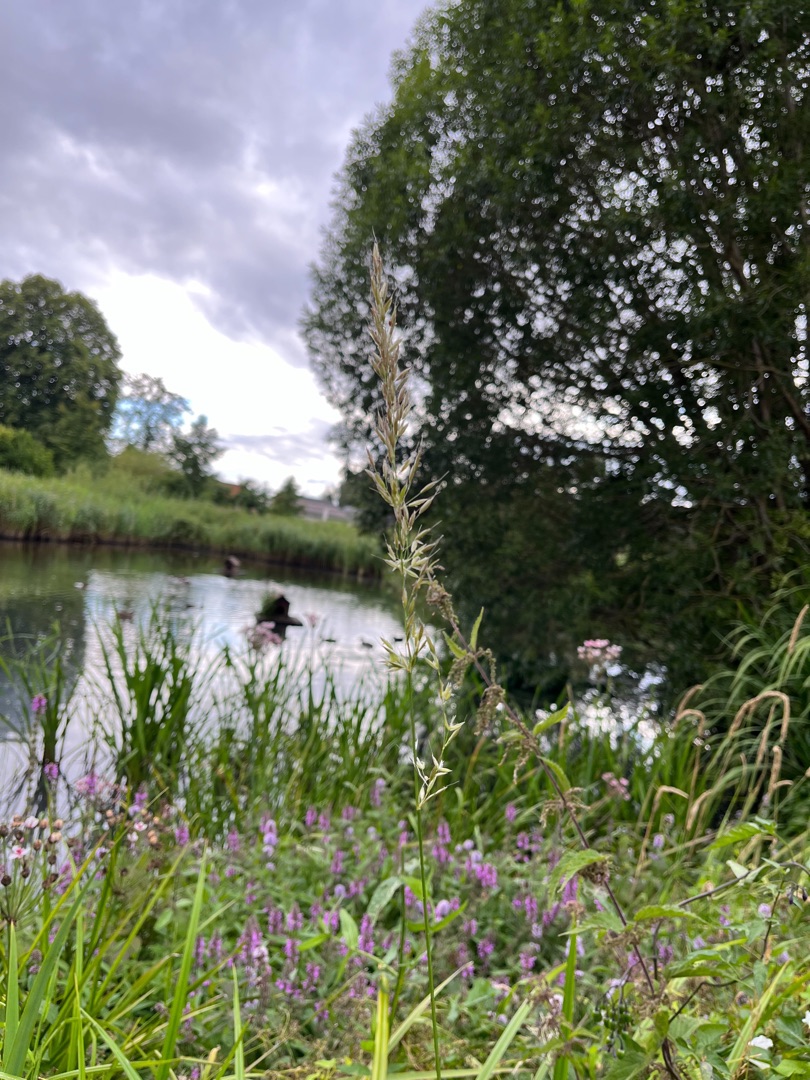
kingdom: Plantae
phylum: Tracheophyta
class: Liliopsida
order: Poales
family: Poaceae
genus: Arrhenatherum
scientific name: Arrhenatherum elatius
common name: Draphavre
